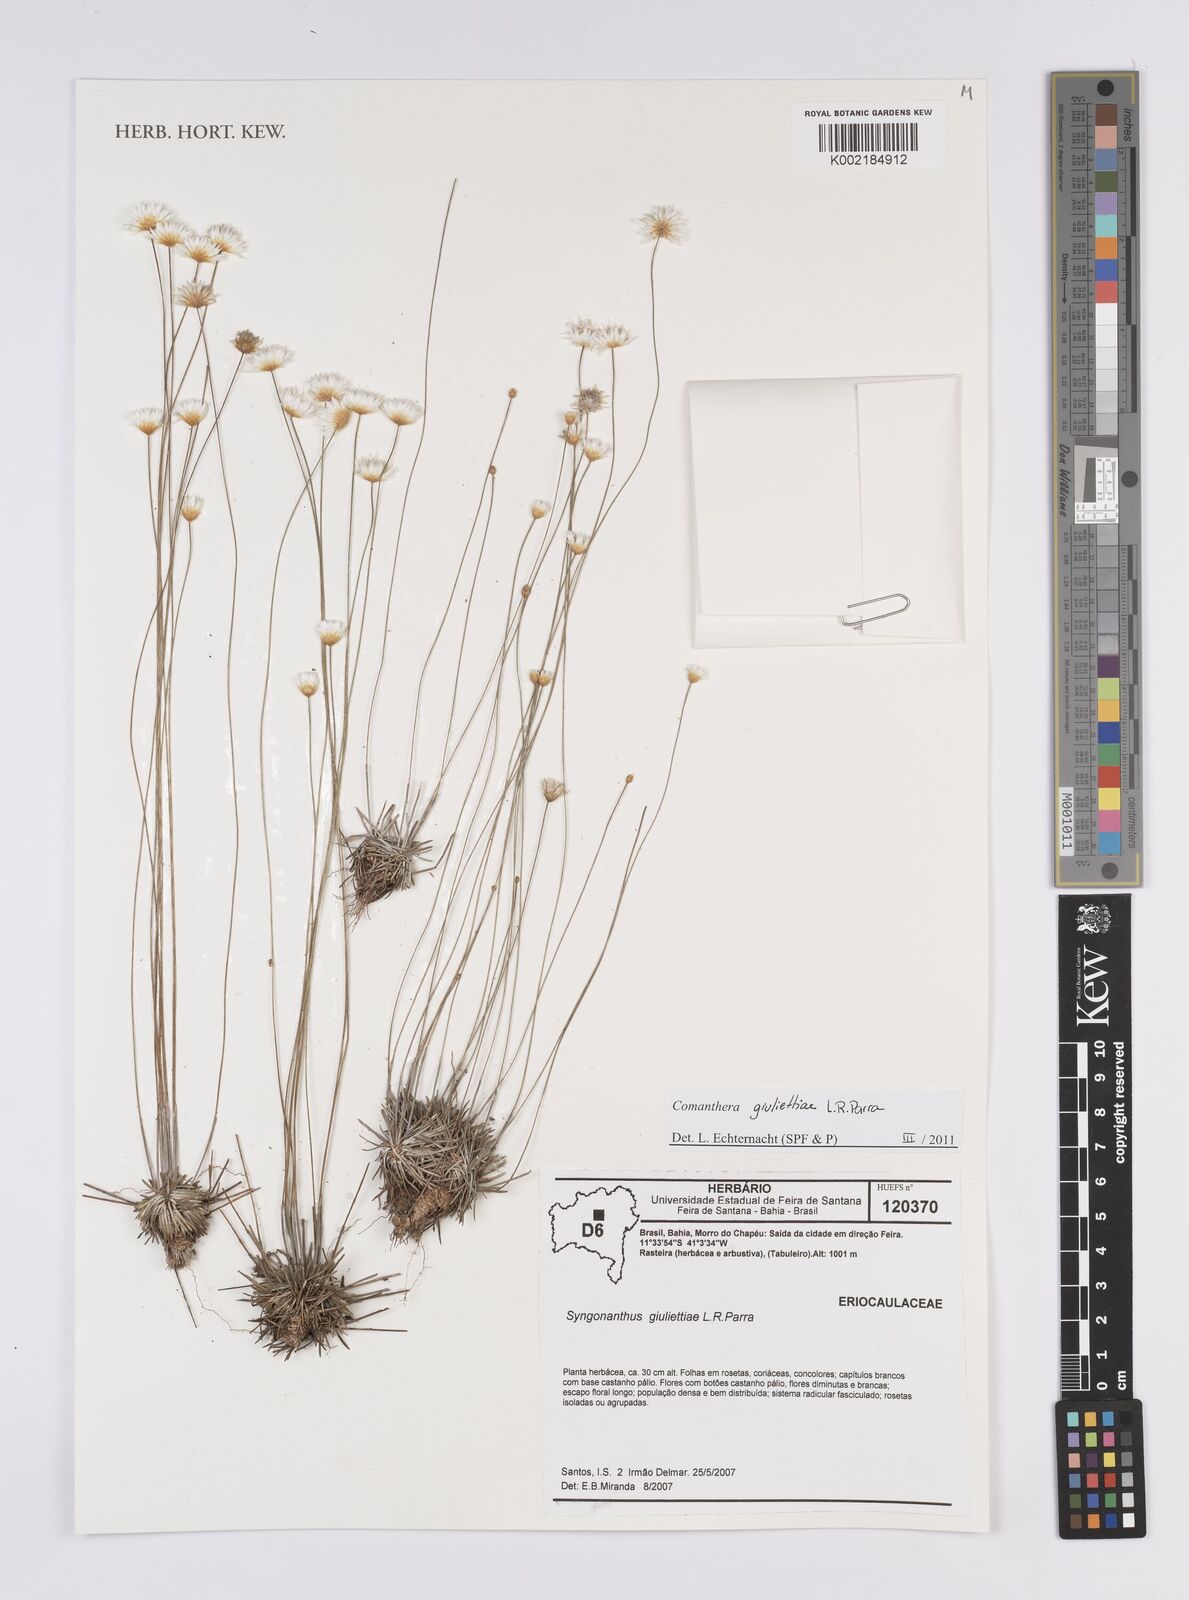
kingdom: Plantae
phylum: Tracheophyta
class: Liliopsida
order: Poales
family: Eriocaulaceae
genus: Comanthera
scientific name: Comanthera giuliettiae
